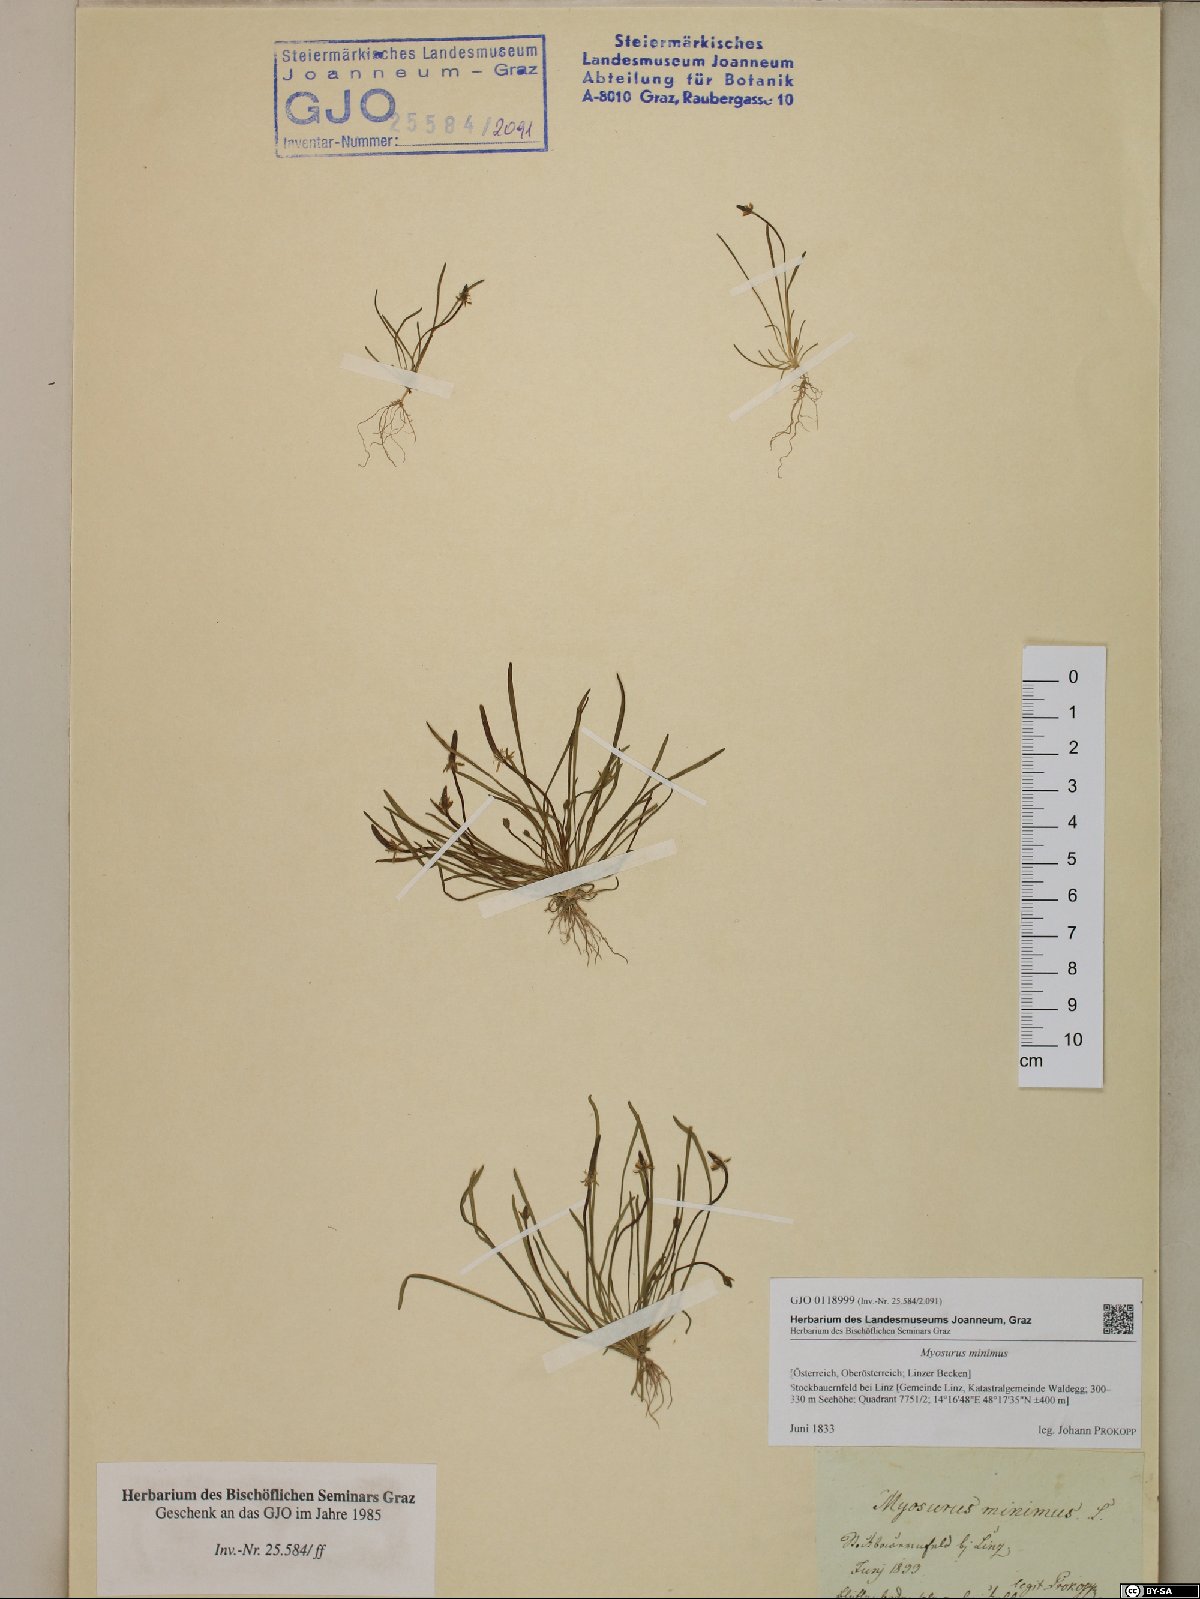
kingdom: Plantae
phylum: Tracheophyta
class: Magnoliopsida
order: Ranunculales
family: Ranunculaceae
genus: Myosurus
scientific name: Myosurus minimus
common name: Mousetail
